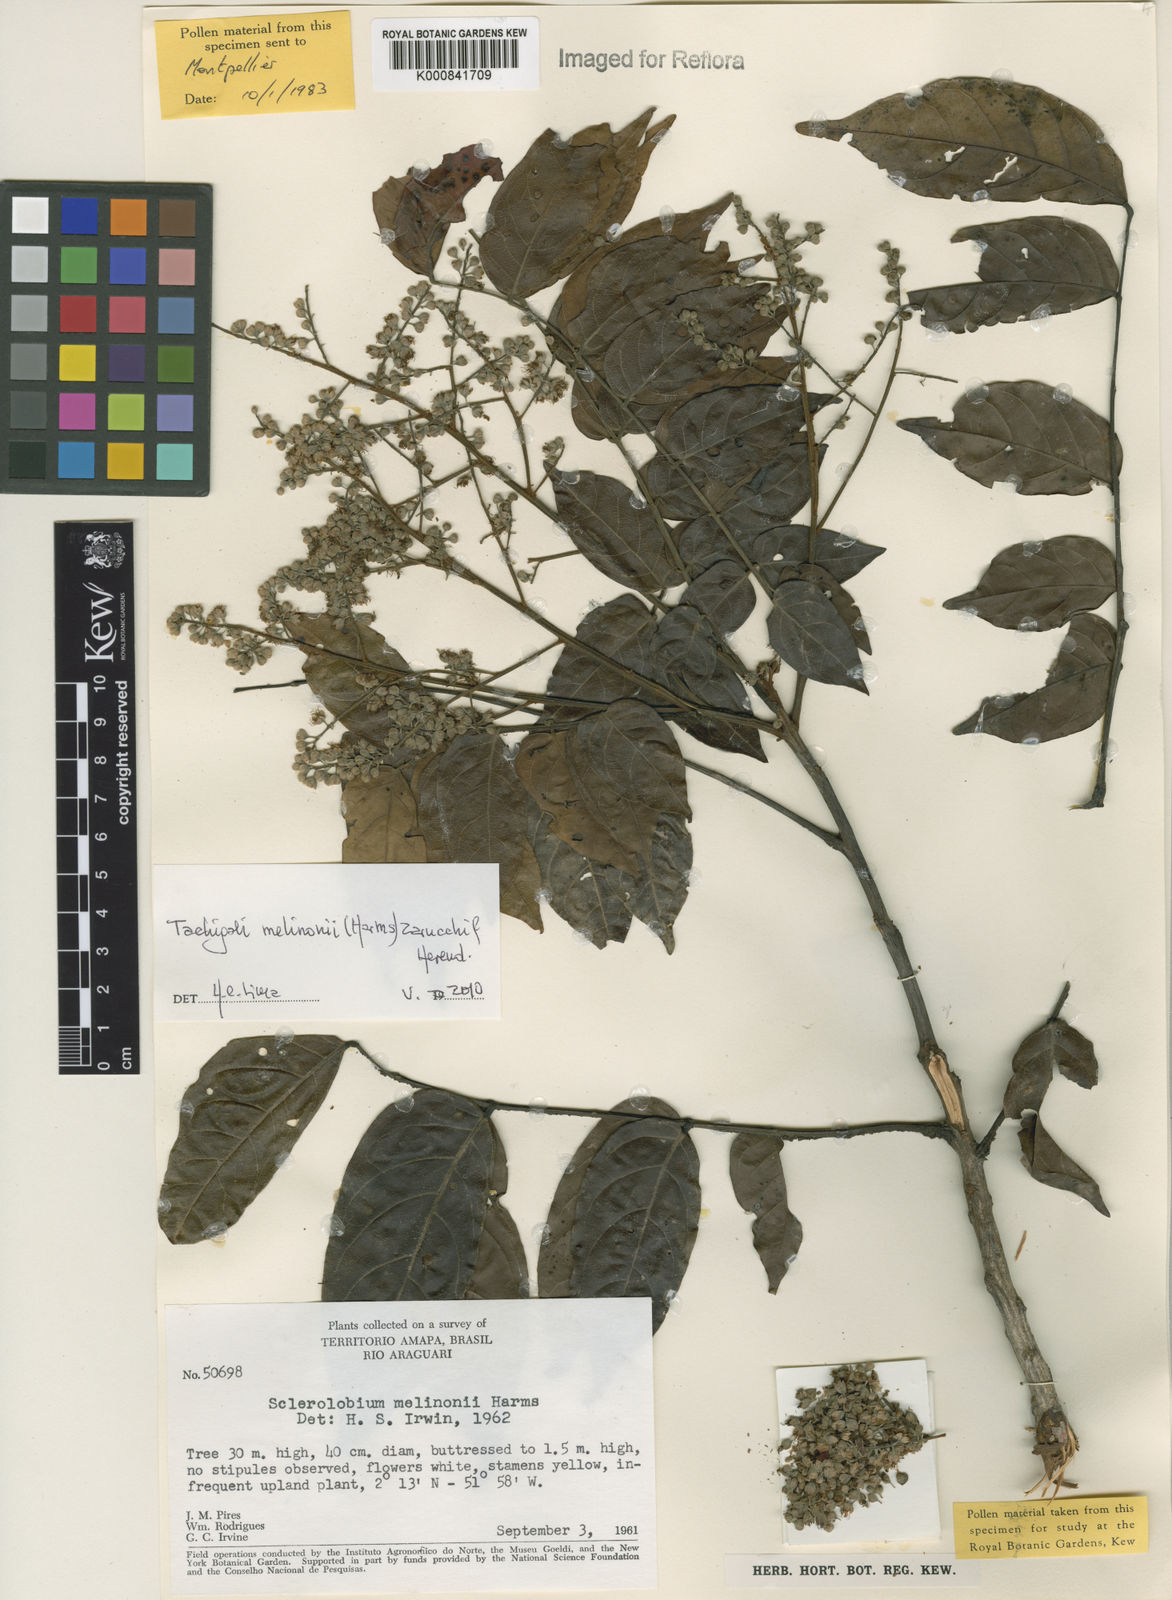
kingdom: Plantae
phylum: Tracheophyta
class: Magnoliopsida
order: Fabales
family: Fabaceae
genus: Tachigali
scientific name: Tachigali melinonii
